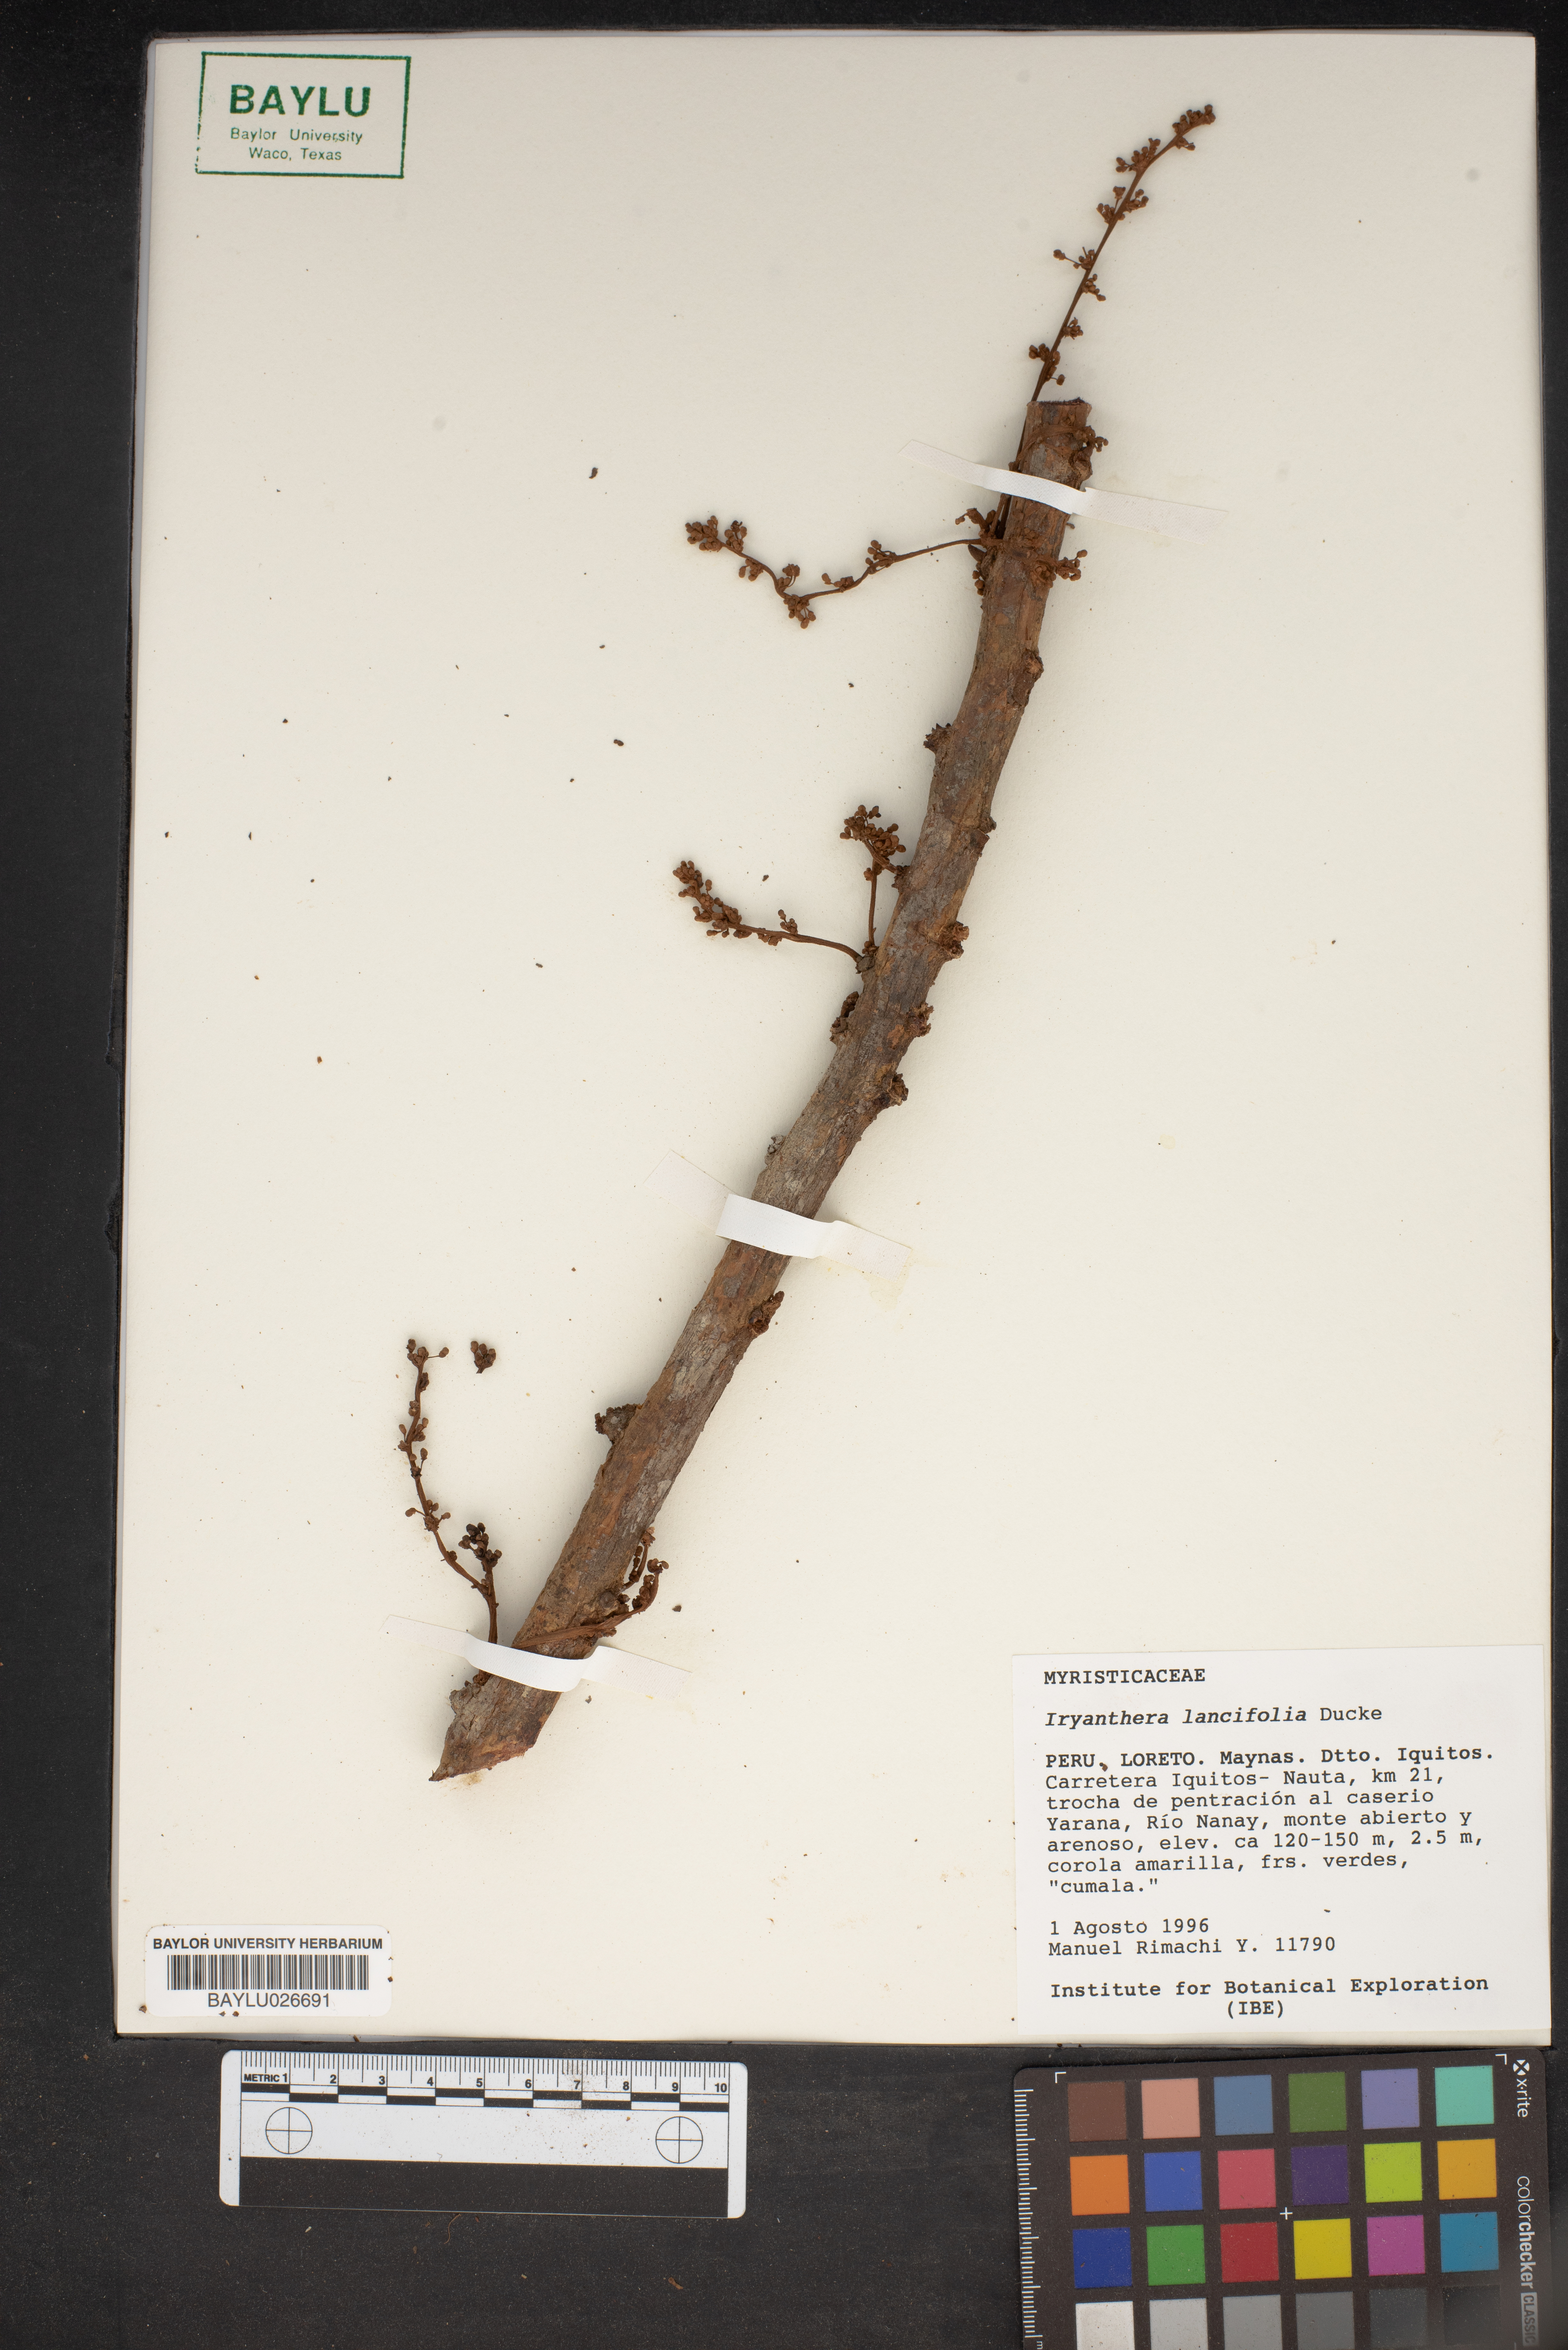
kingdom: Plantae
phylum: Tracheophyta
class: Magnoliopsida
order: Magnoliales
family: Myristicaceae
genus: Iryanthera
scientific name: Iryanthera lancifolia
